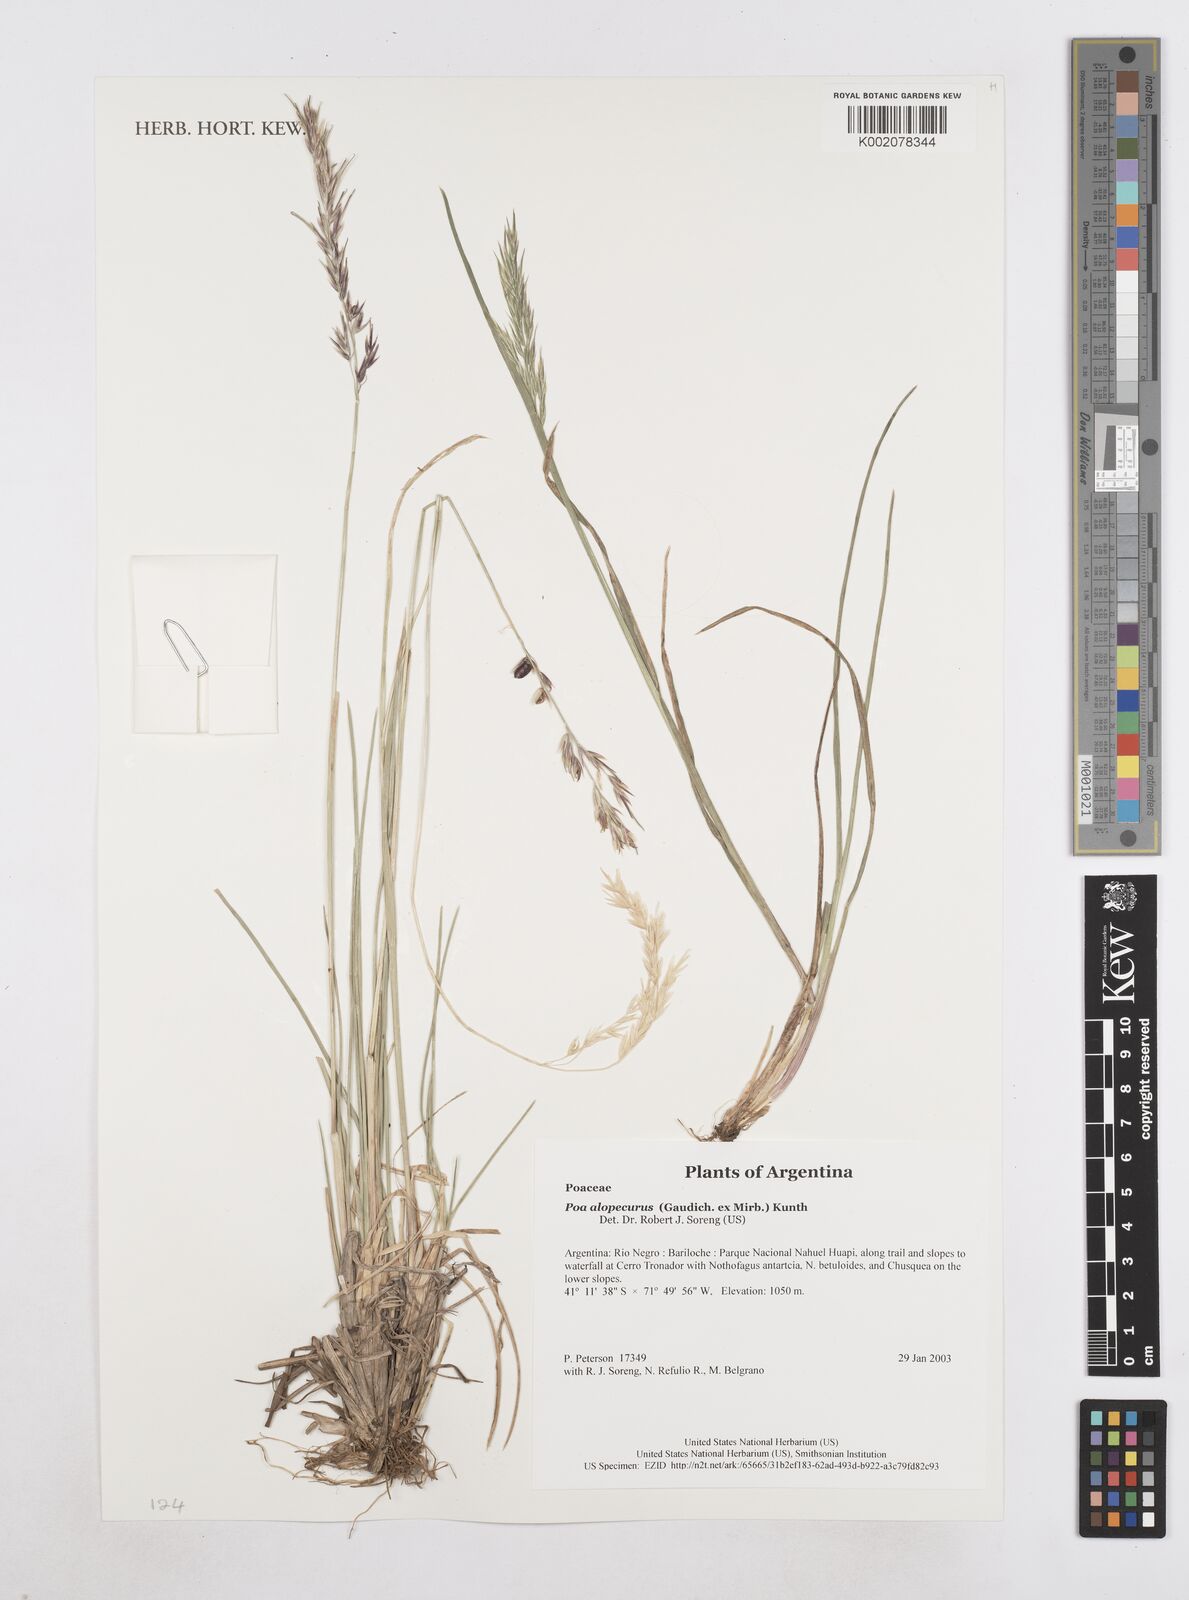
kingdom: Plantae
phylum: Tracheophyta
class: Liliopsida
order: Poales
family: Poaceae
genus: Poa
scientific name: Poa alopecurus
